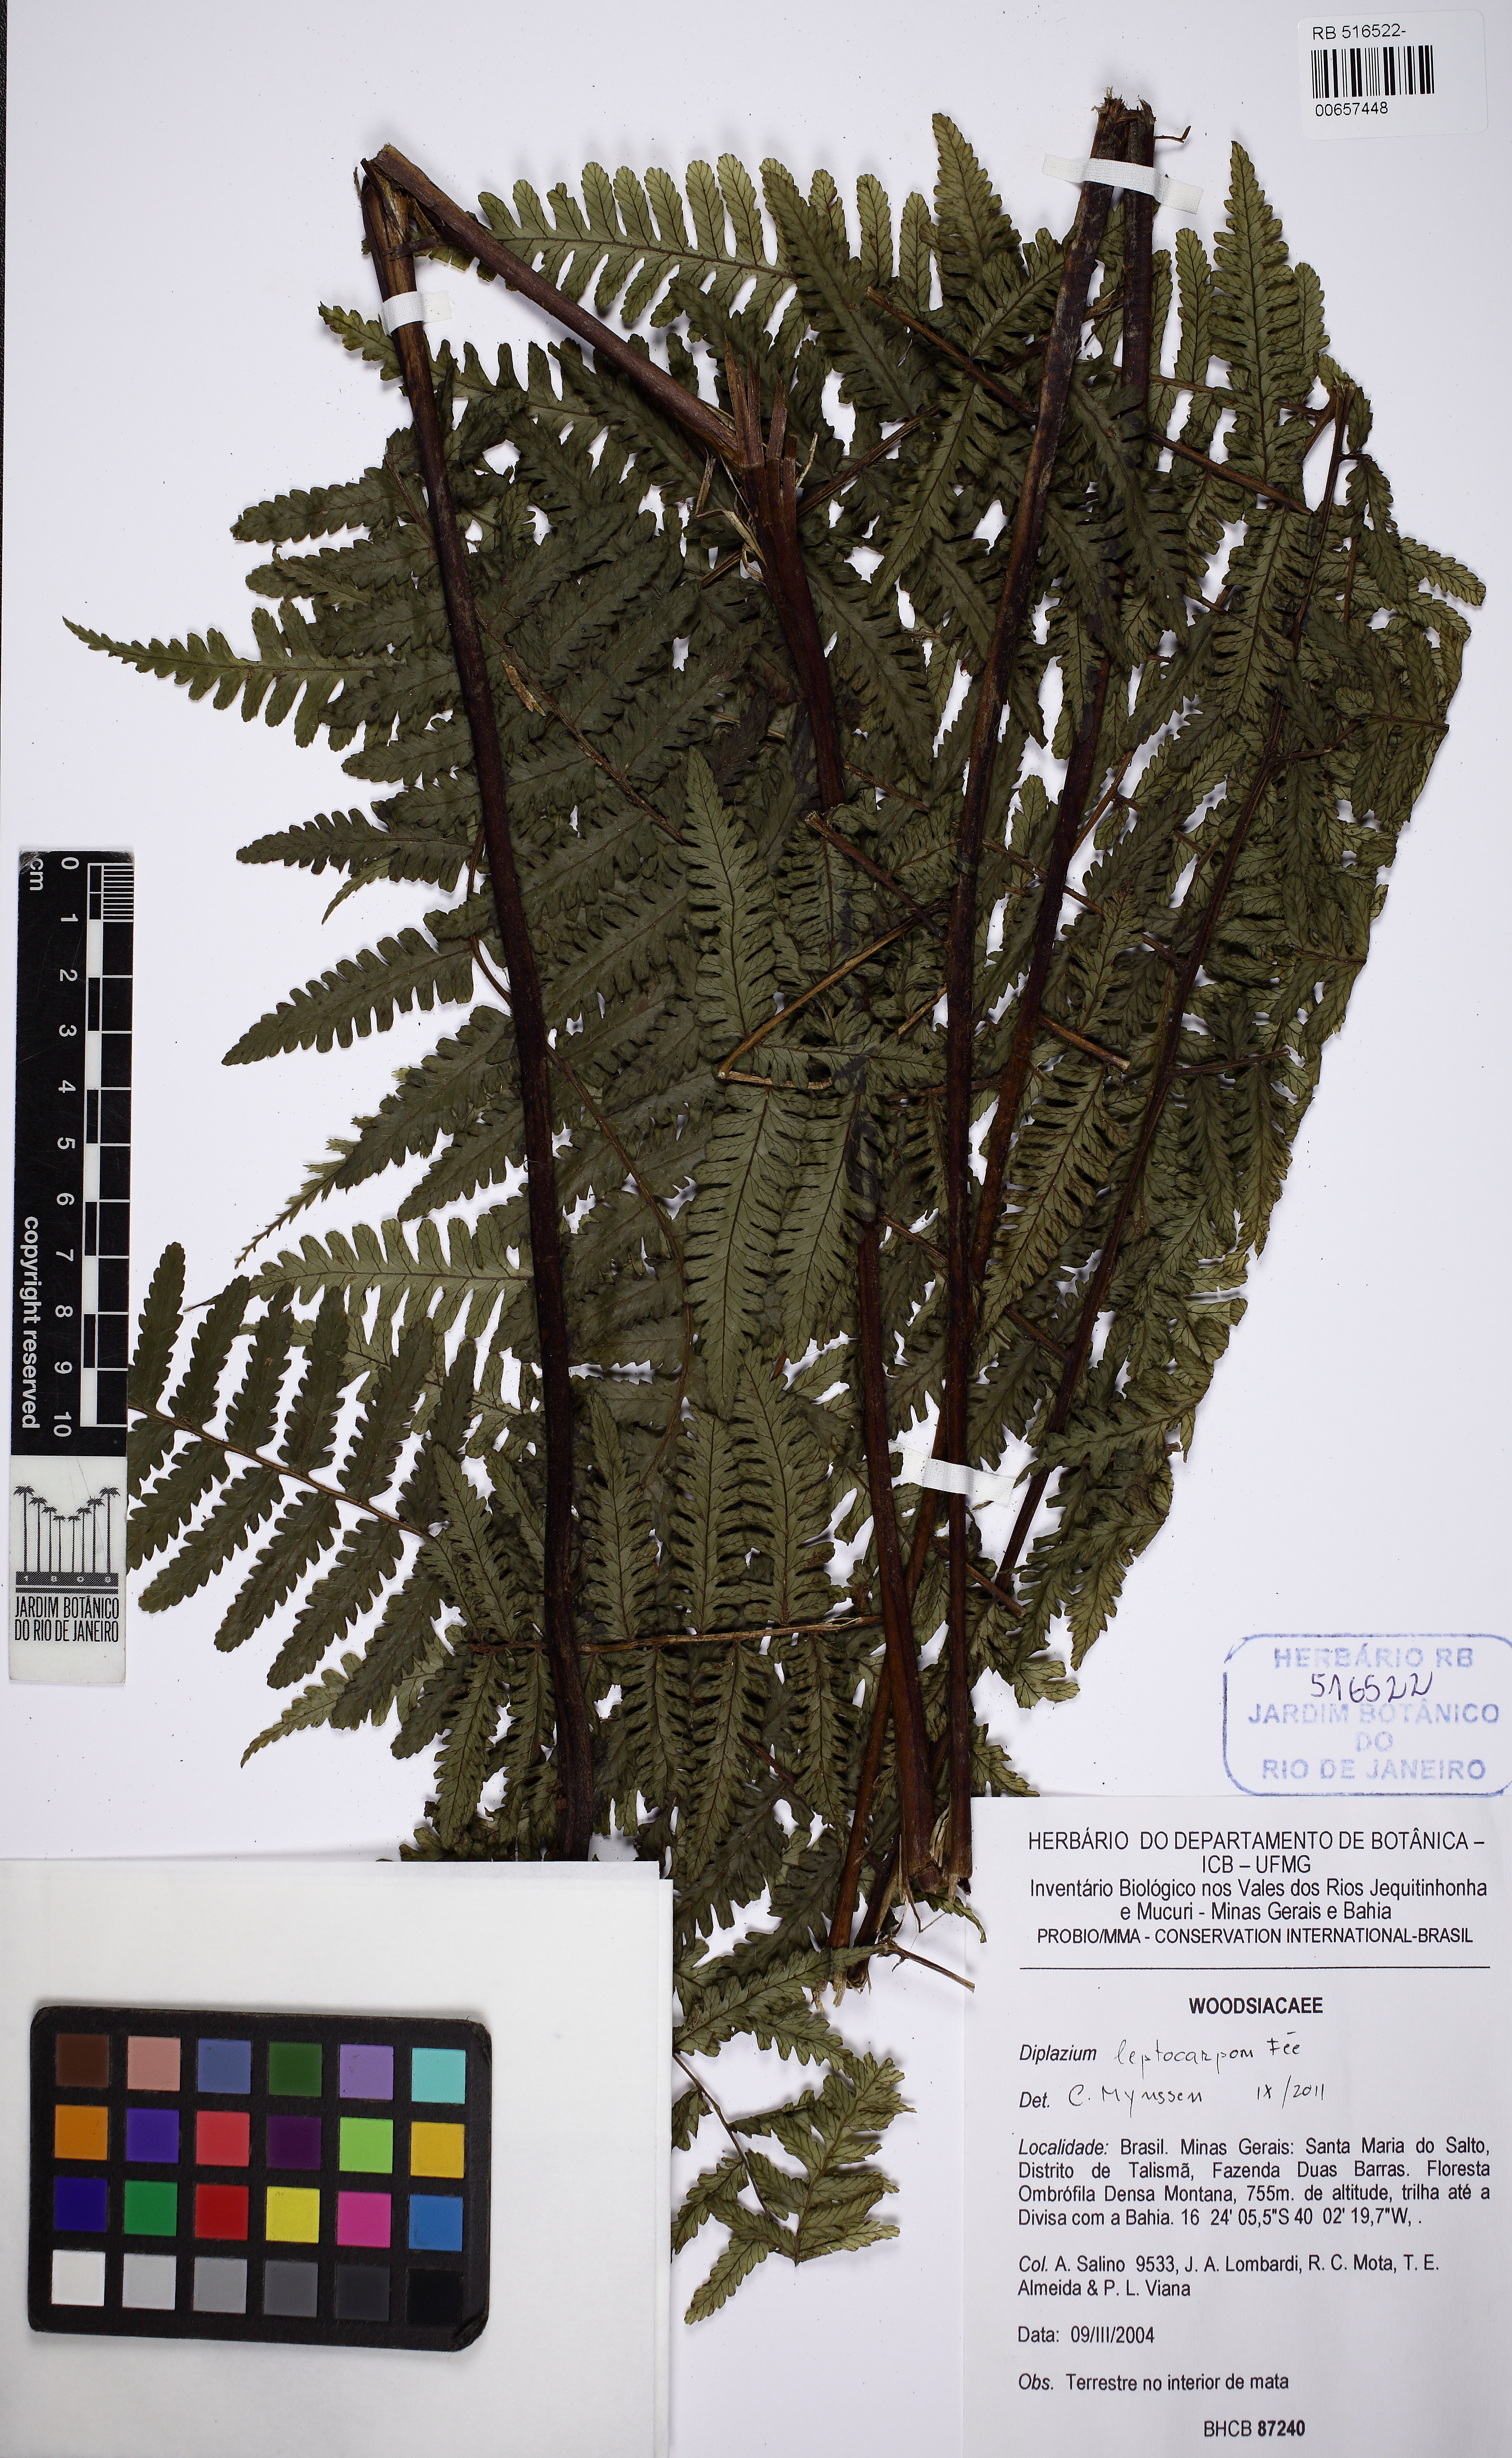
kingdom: Plantae
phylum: Tracheophyta
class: Polypodiopsida
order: Polypodiales
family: Athyriaceae
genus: Diplazium
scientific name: Diplazium leptocarpon
